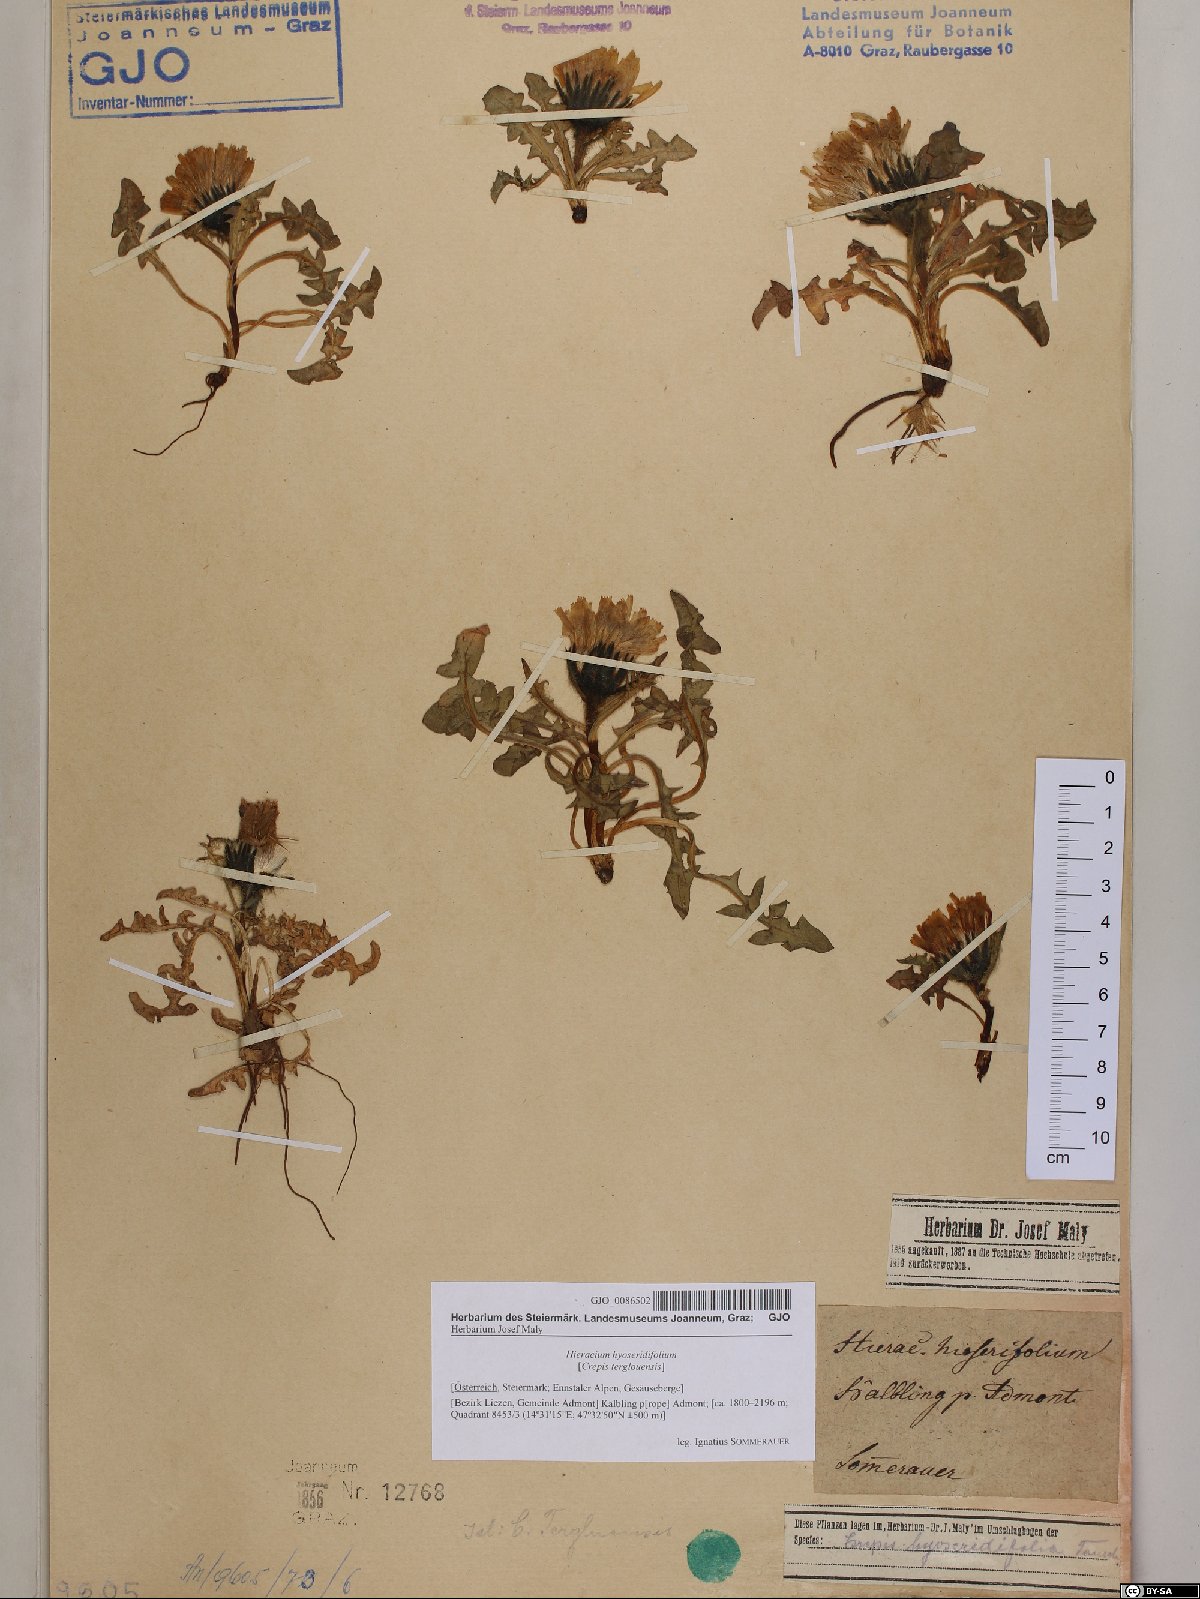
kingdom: Plantae
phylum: Tracheophyta
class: Magnoliopsida
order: Asterales
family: Asteraceae
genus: Crepis
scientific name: Crepis terglouensis
